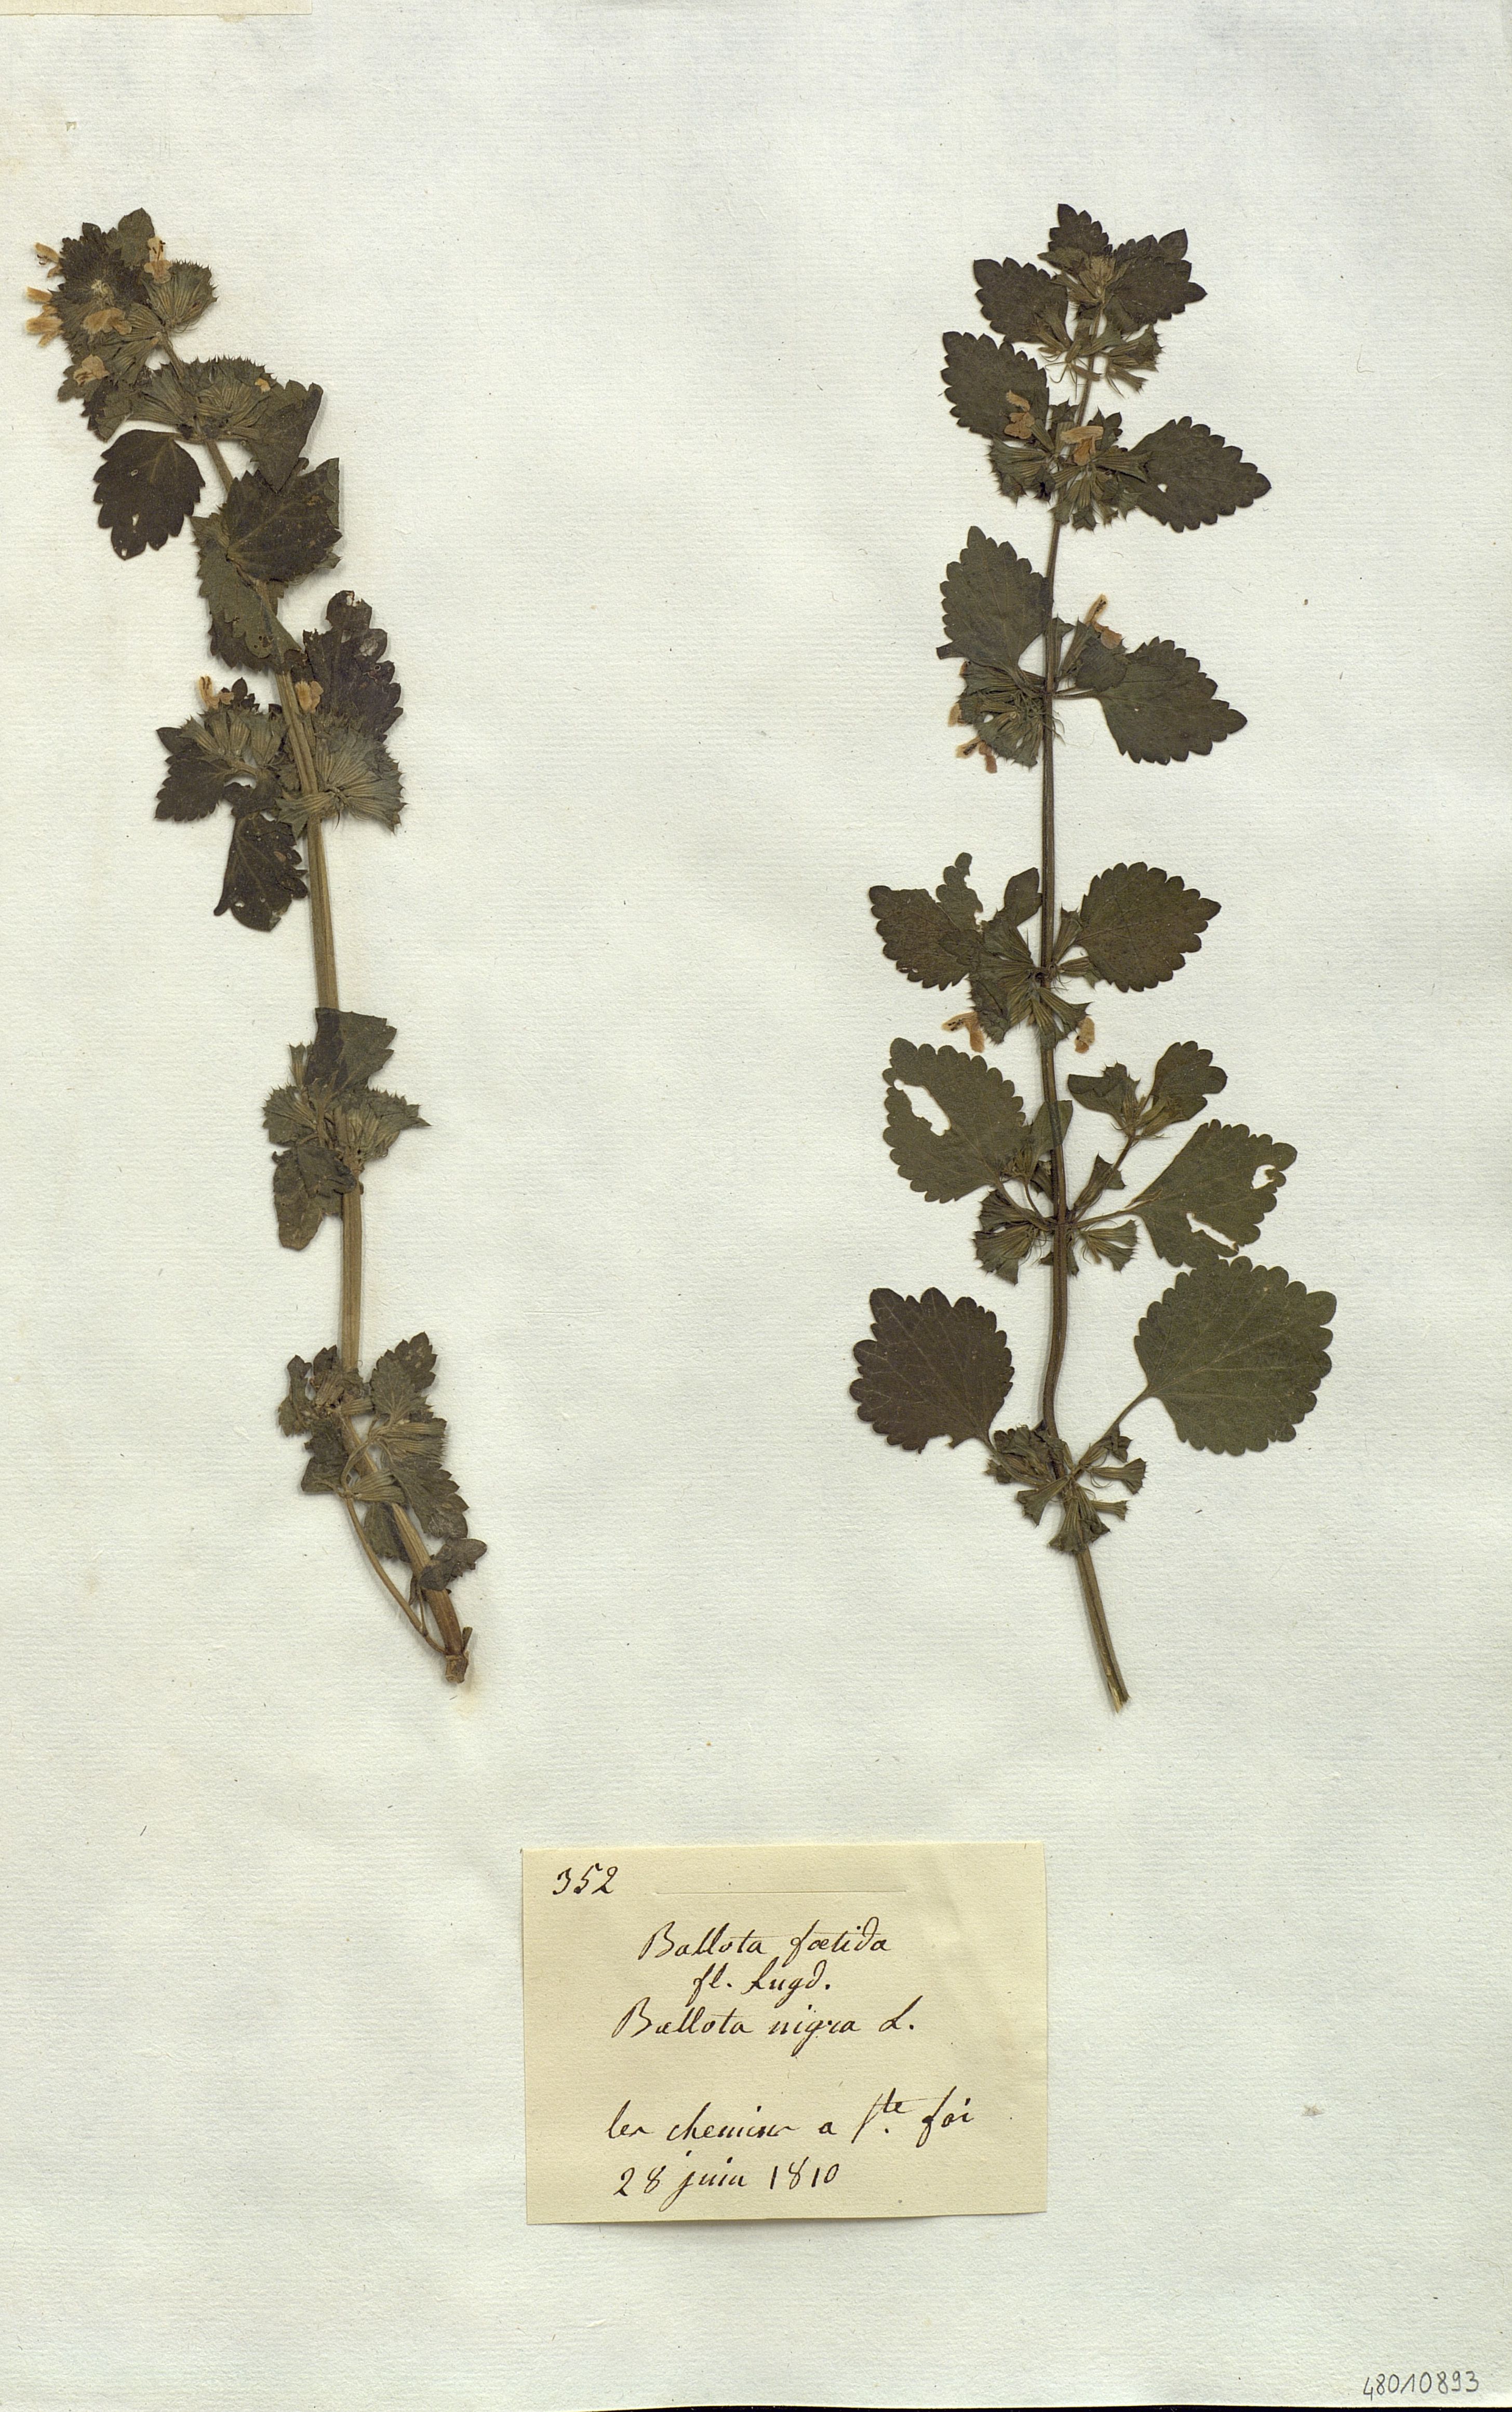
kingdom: Plantae
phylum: Tracheophyta
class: Magnoliopsida
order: Lamiales
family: Lamiaceae
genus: Ballota
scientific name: Ballota nigra
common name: Black horehound
